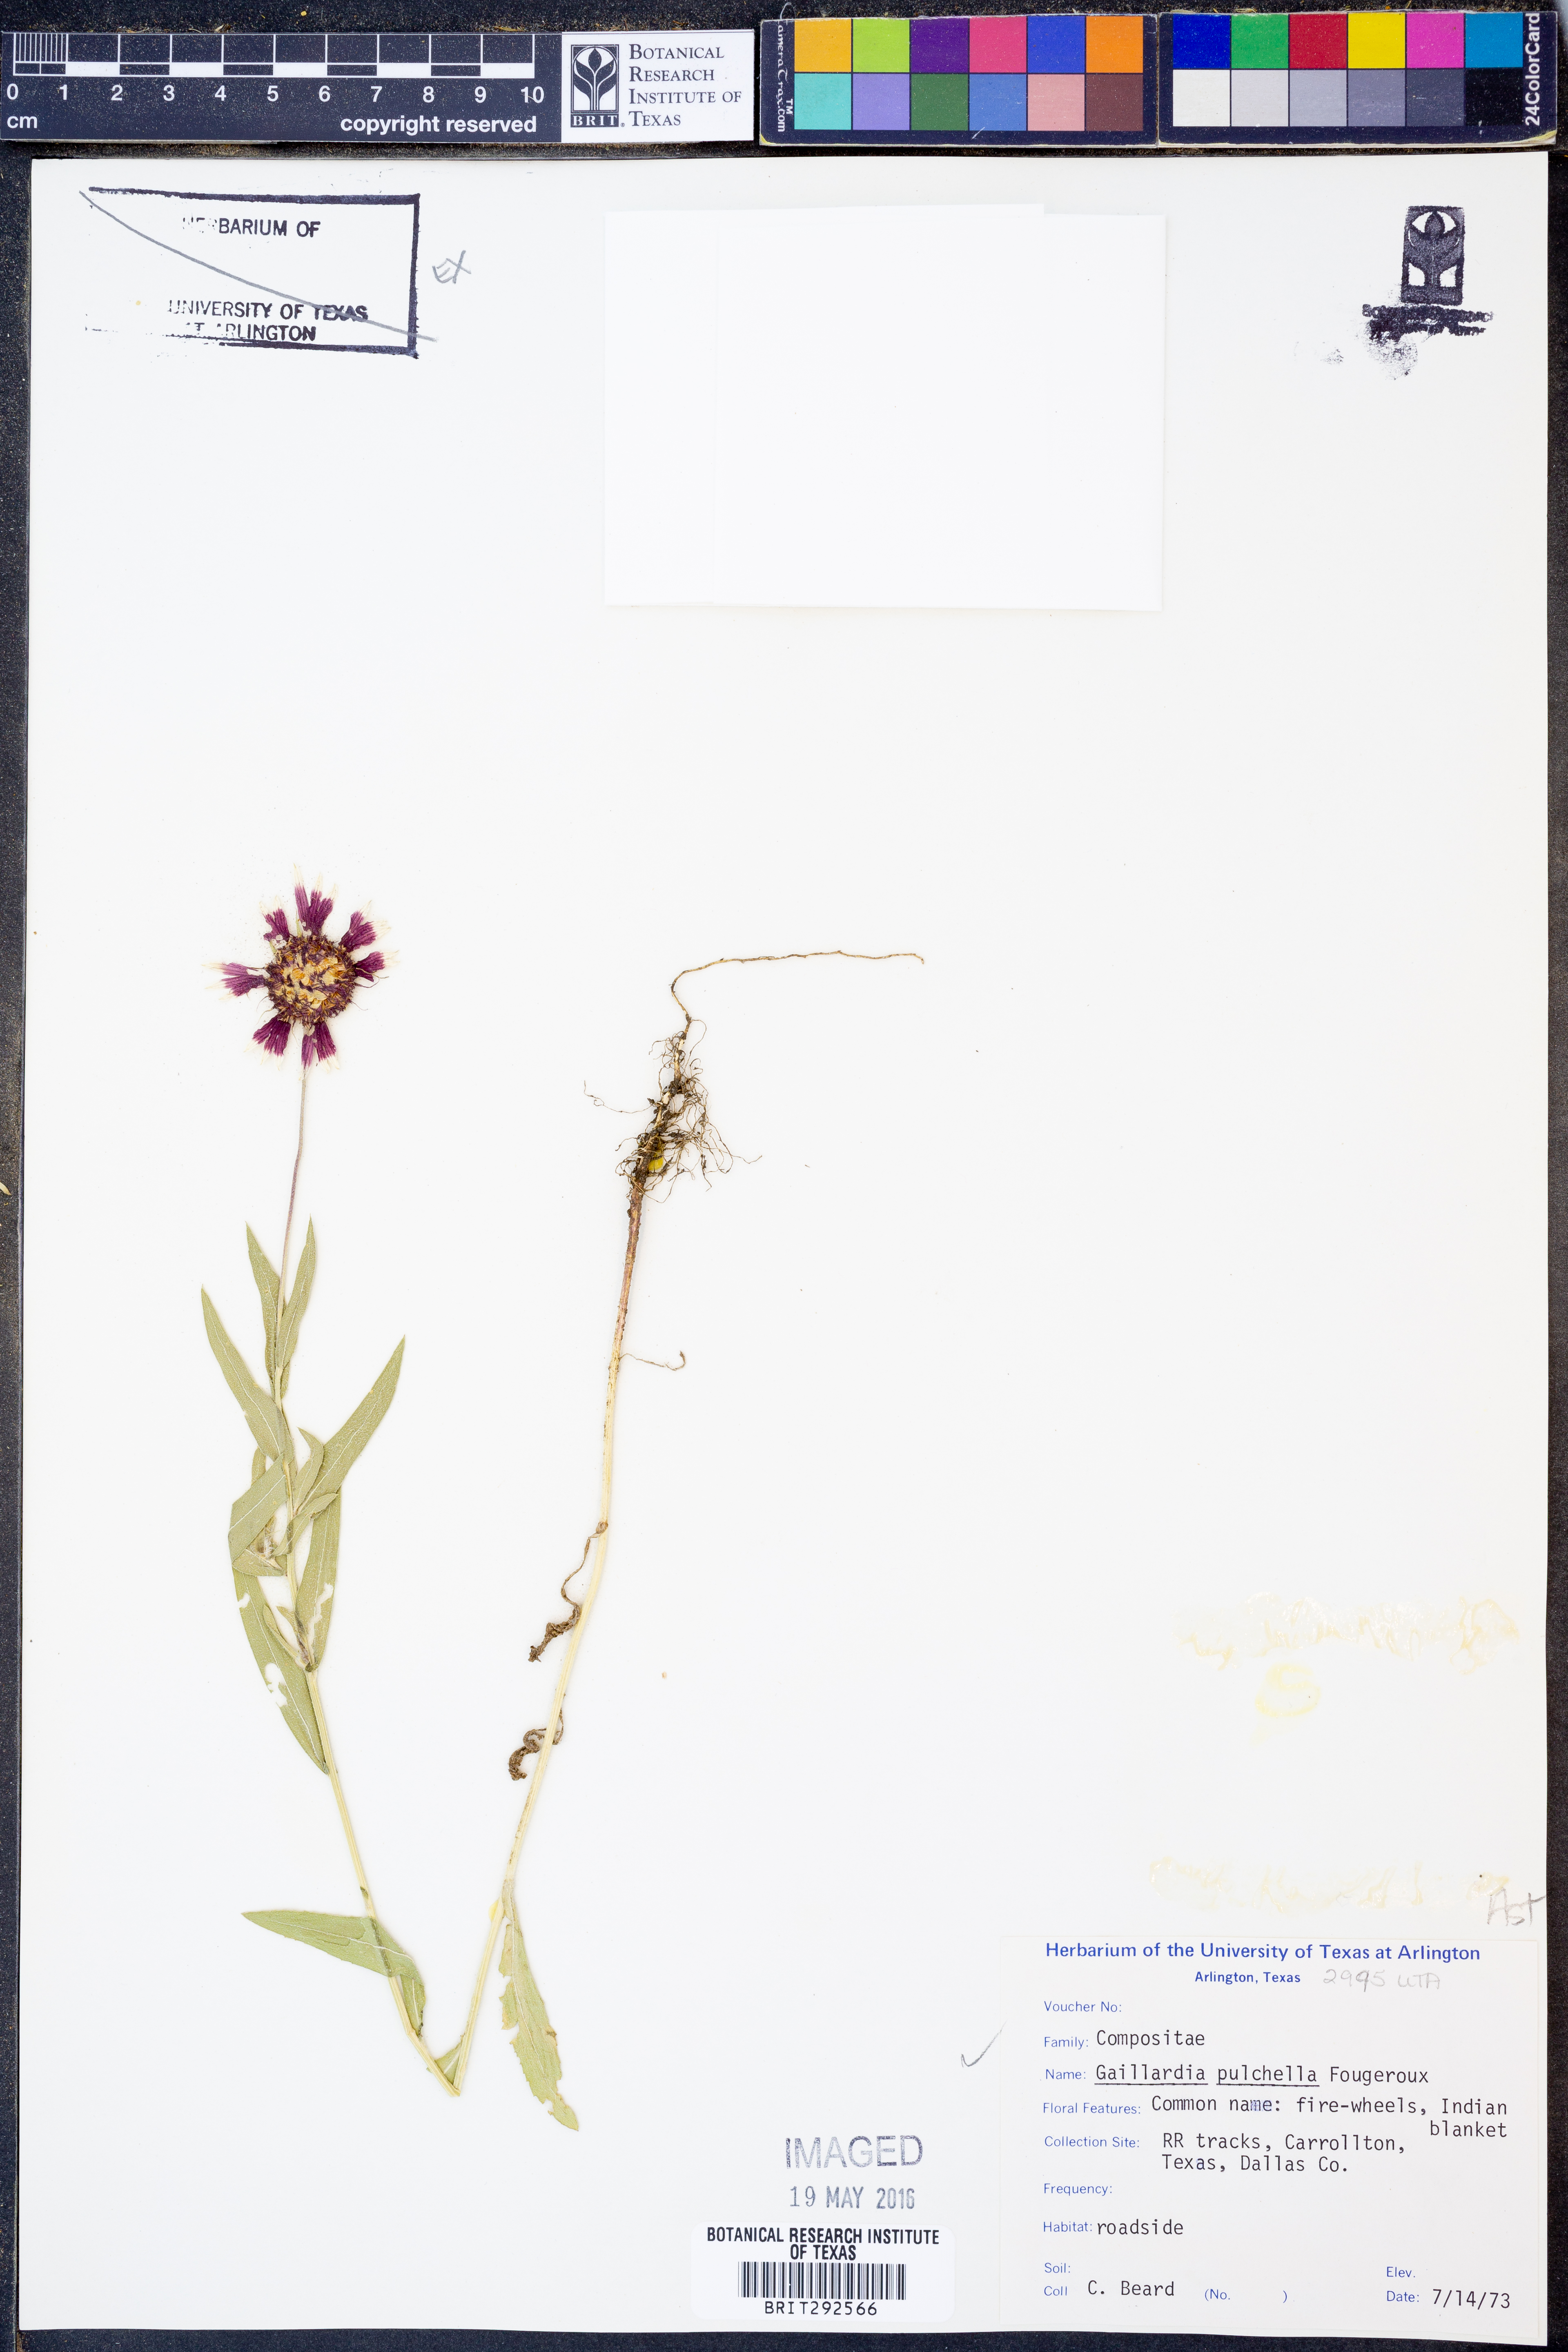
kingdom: Plantae
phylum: Tracheophyta
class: Magnoliopsida
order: Asterales
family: Asteraceae
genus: Gaillardia
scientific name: Gaillardia pulchella
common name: Firewheel
